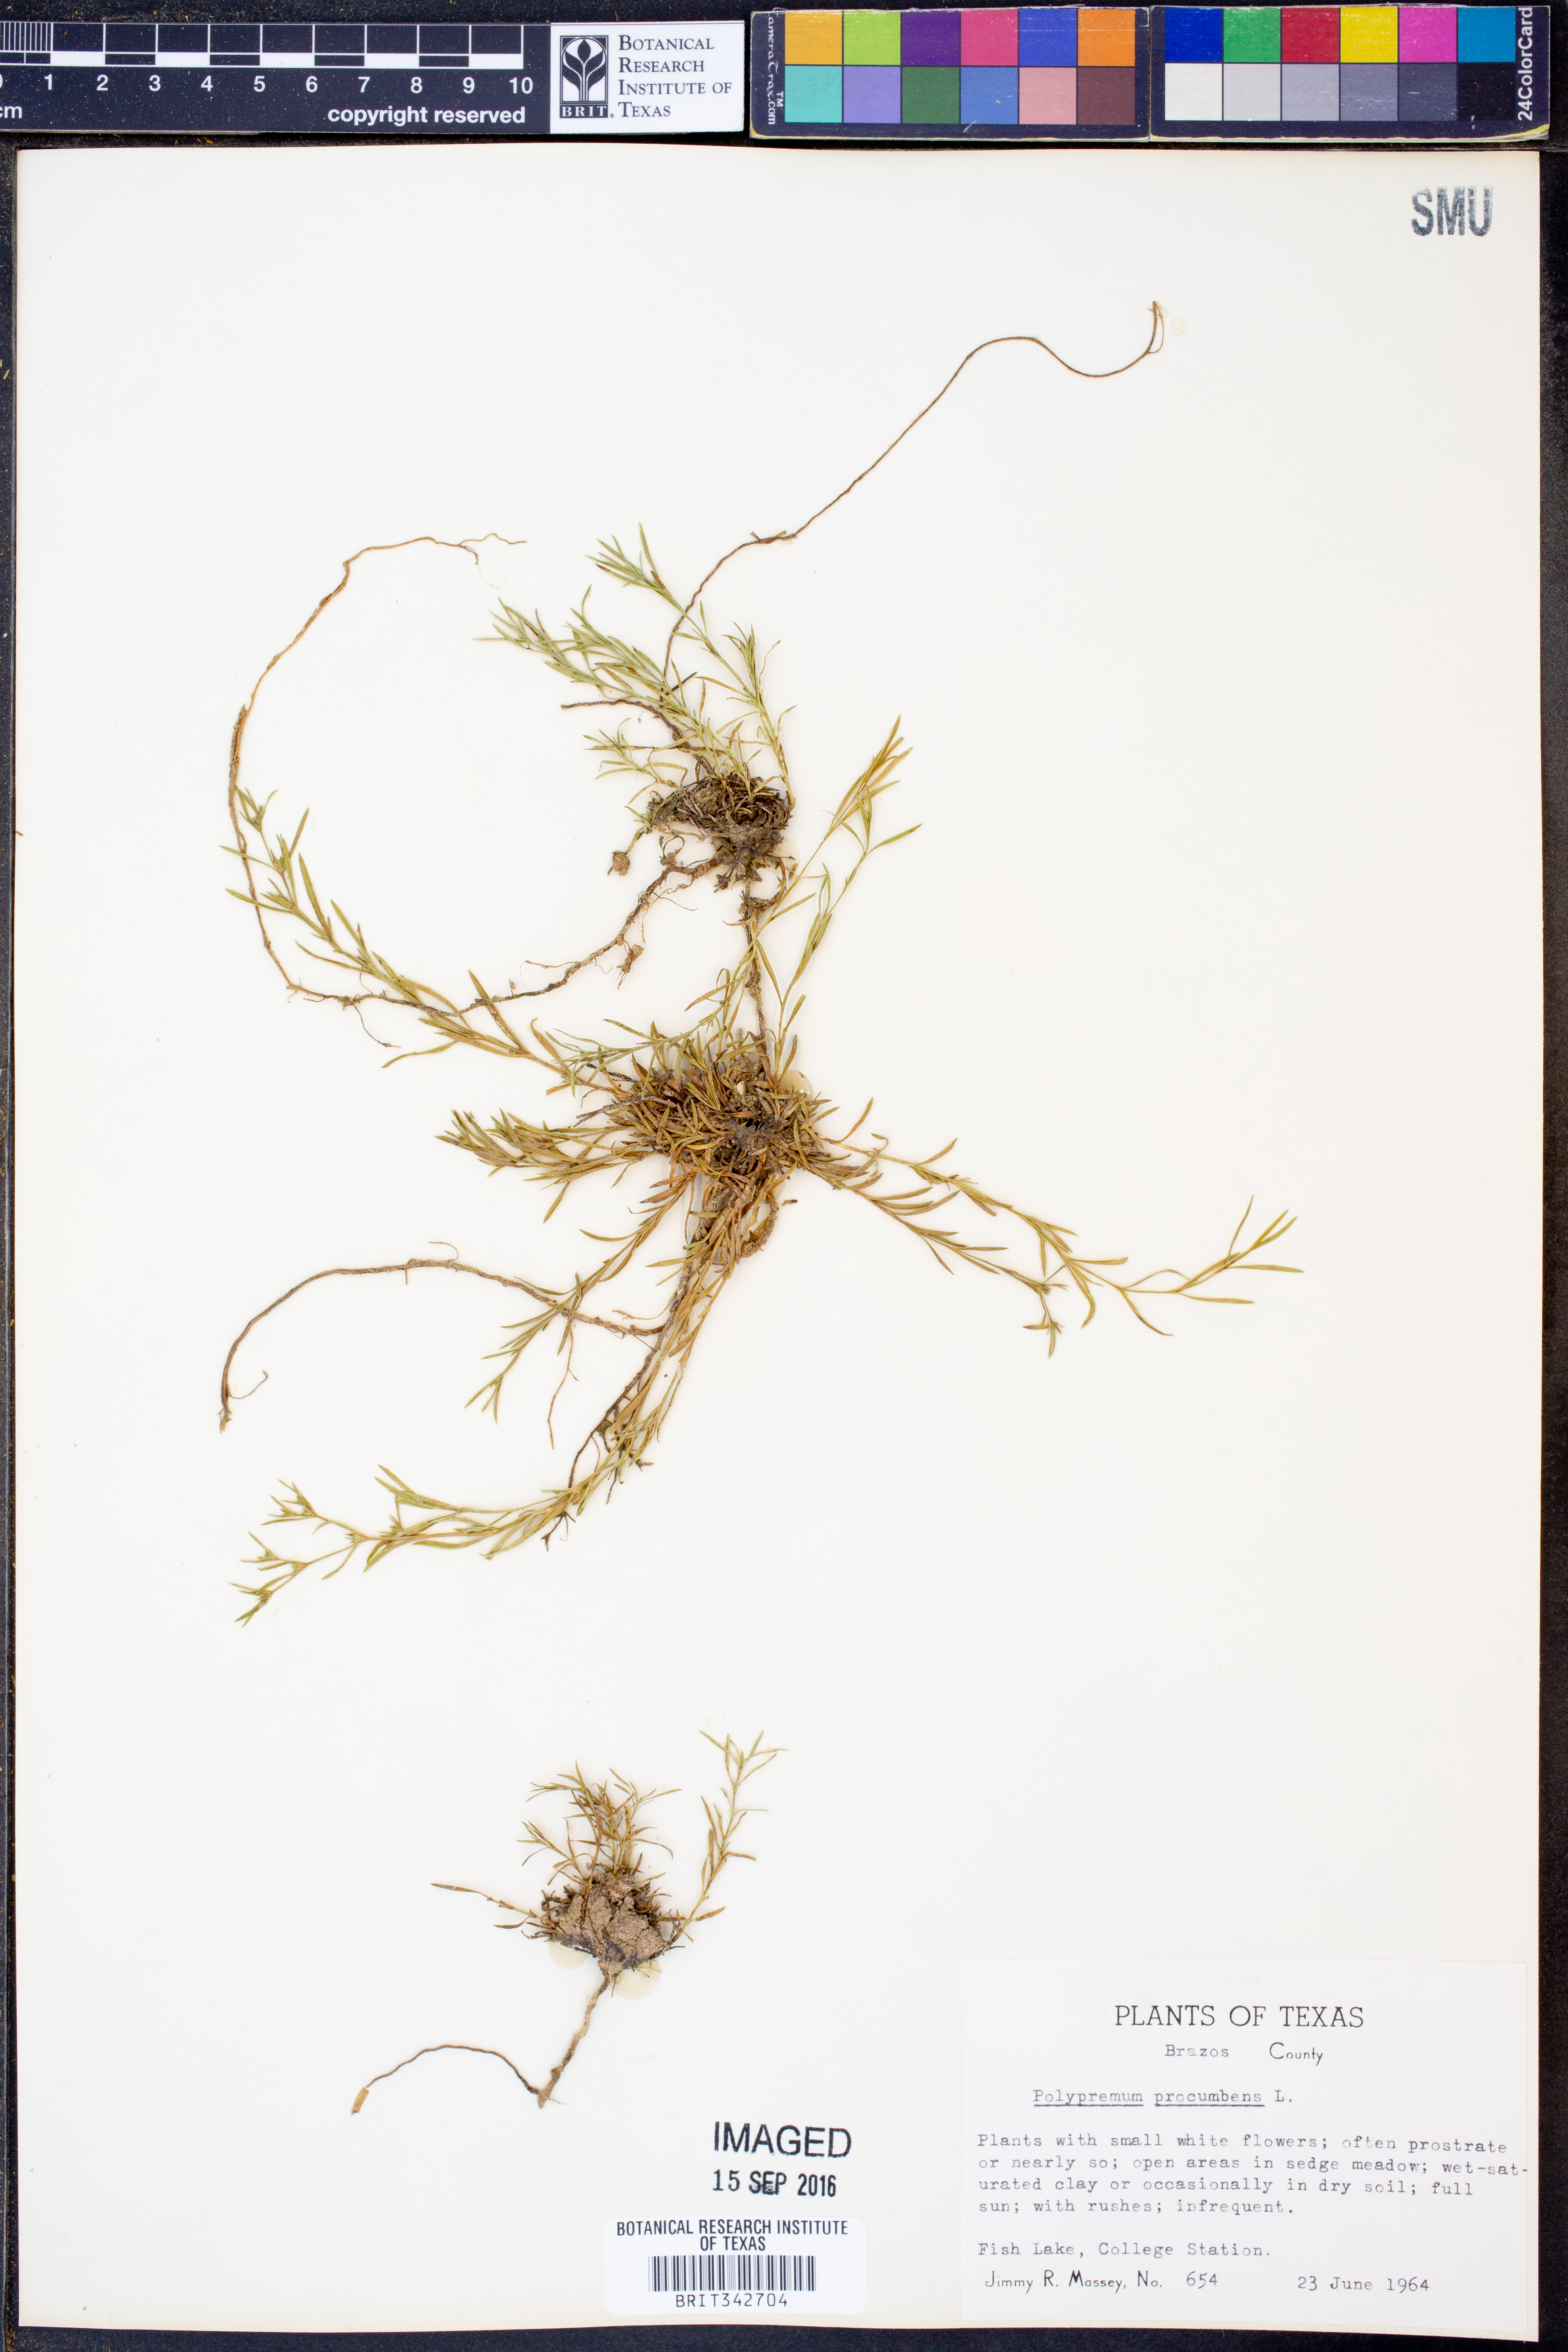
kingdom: Plantae
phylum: Tracheophyta
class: Magnoliopsida
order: Lamiales
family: Tetrachondraceae
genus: Polypremum
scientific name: Polypremum procumbens
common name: Juniper-leaf
